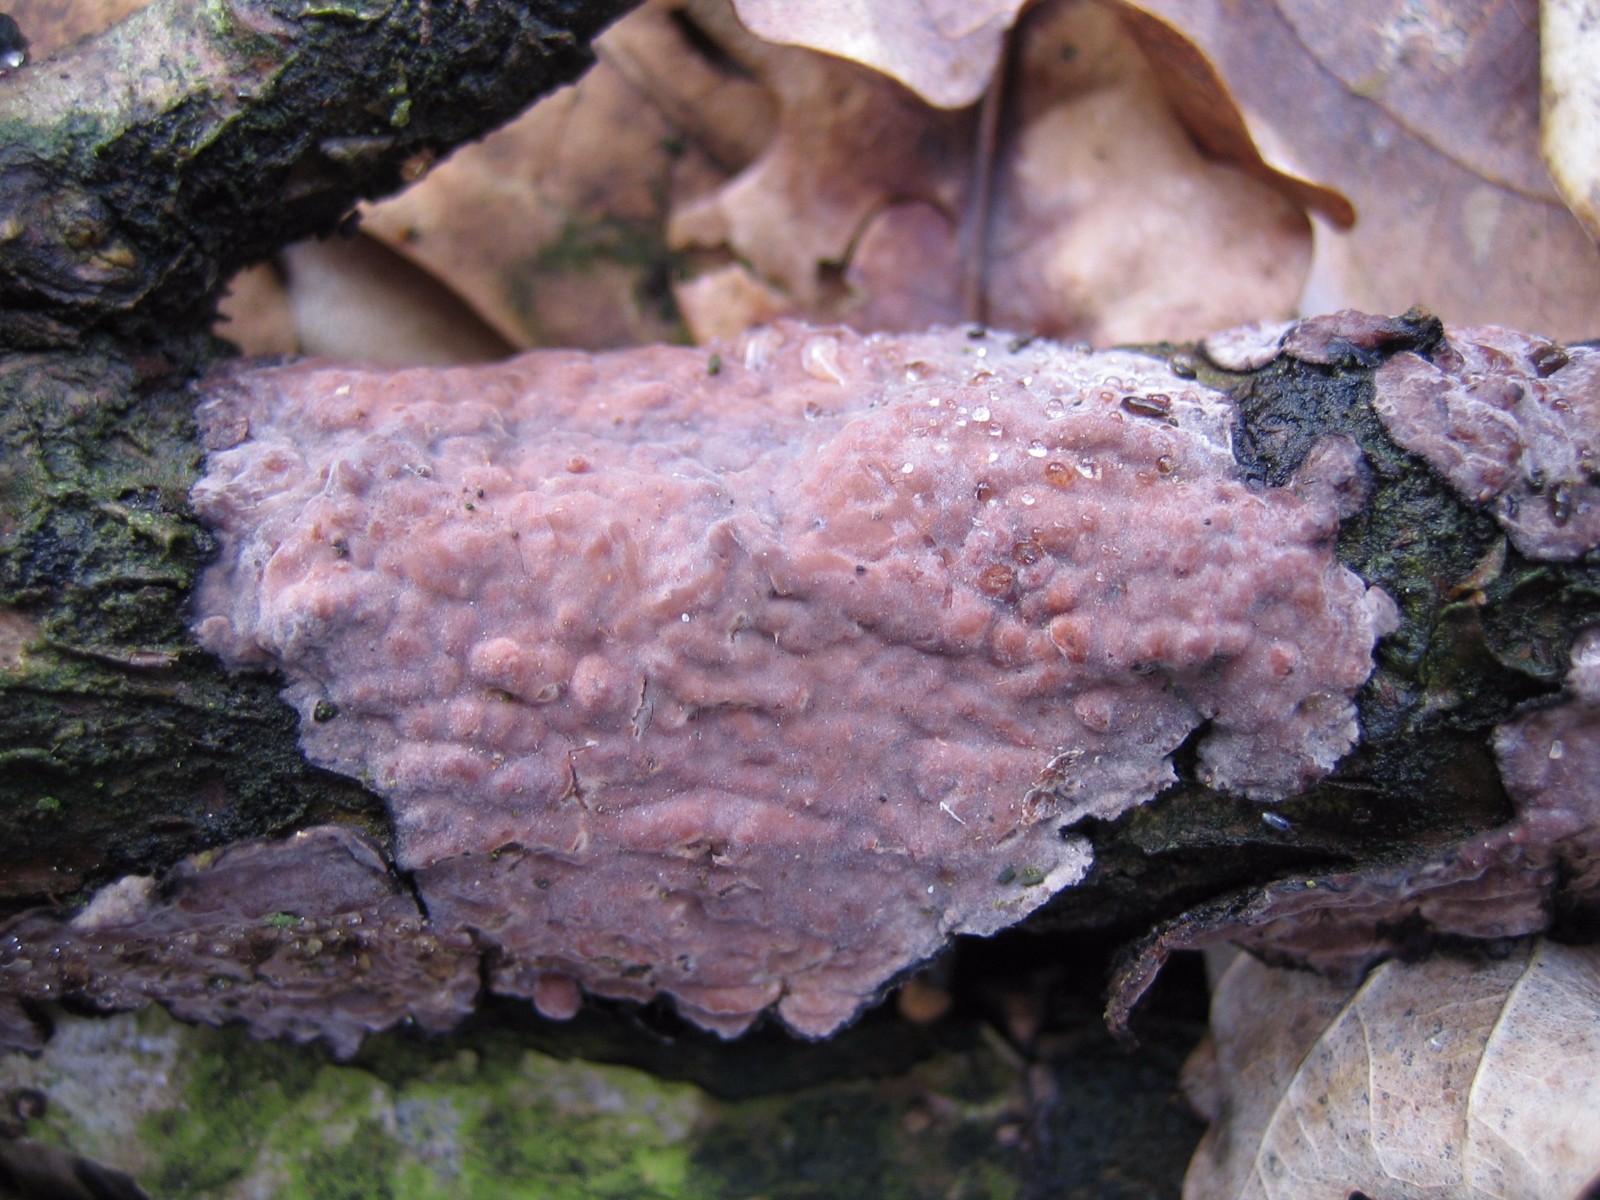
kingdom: Fungi
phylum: Basidiomycota
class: Agaricomycetes
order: Russulales
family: Peniophoraceae
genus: Peniophora
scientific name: Peniophora quercina
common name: ege-voksskind
